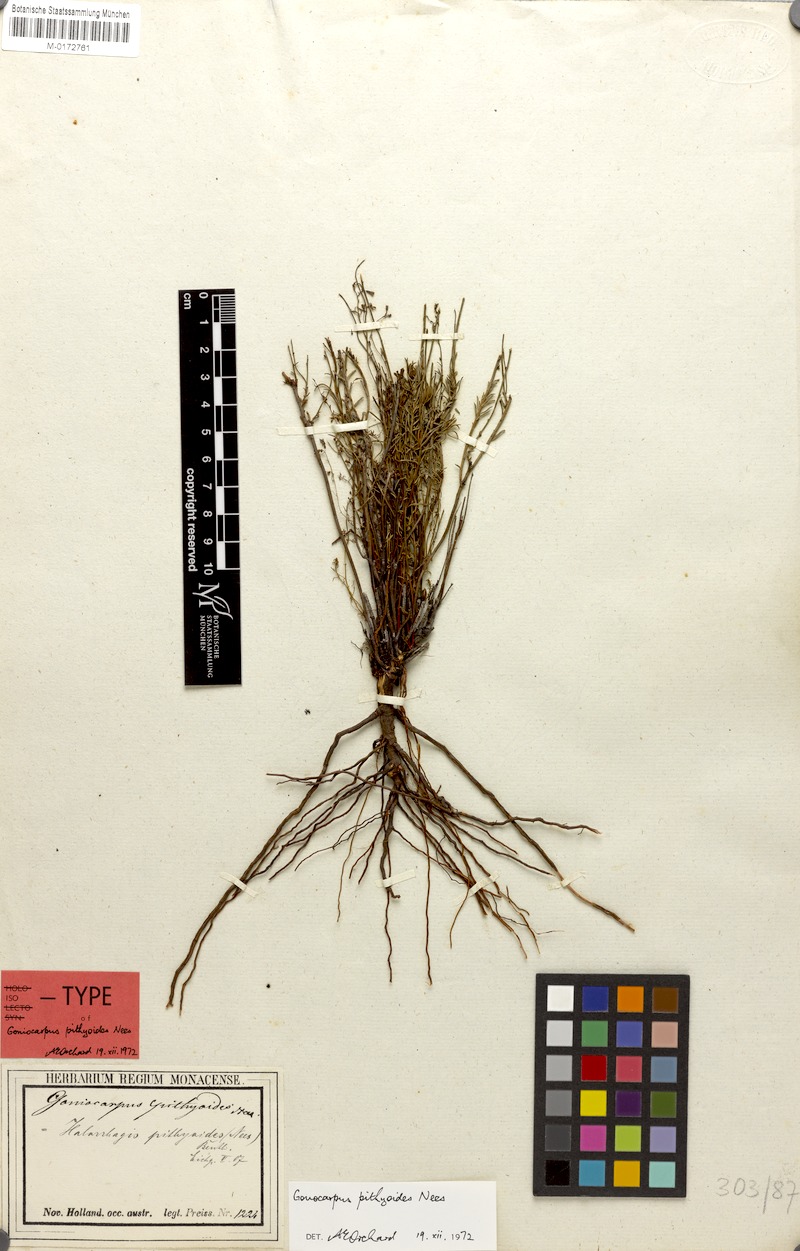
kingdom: Plantae
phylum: Tracheophyta
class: Magnoliopsida
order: Saxifragales
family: Haloragaceae
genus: Gonocarpus
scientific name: Gonocarpus pithyoides
